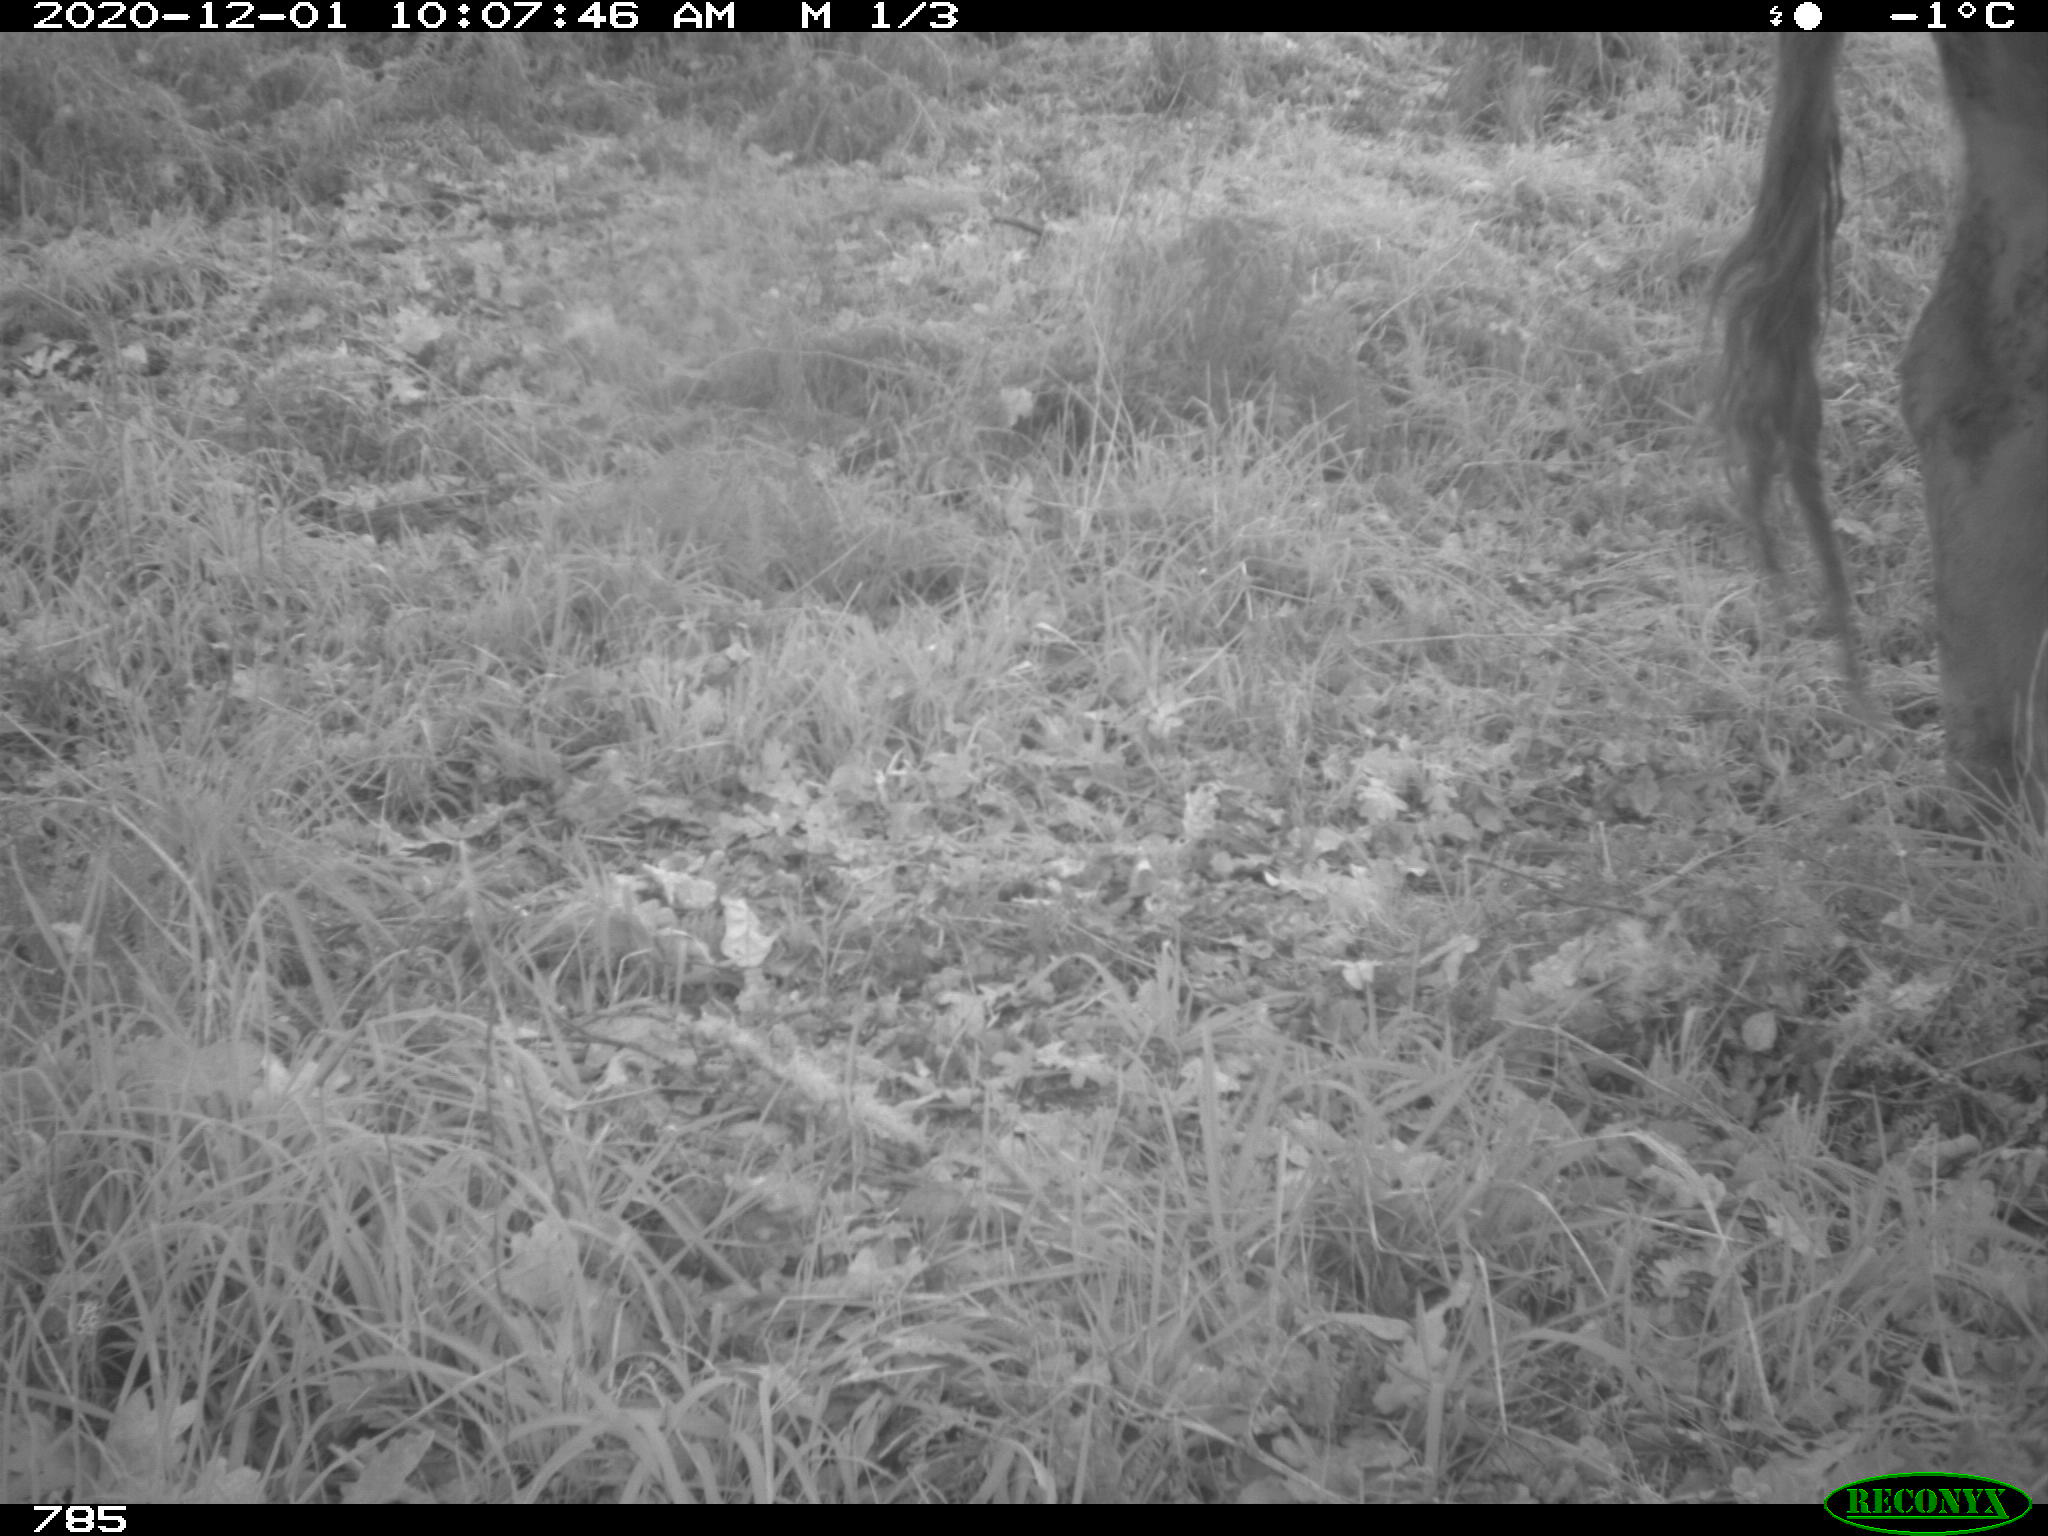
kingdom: Animalia
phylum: Chordata
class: Mammalia
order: Artiodactyla
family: Bovidae
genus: Bos
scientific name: Bos taurus
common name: Domesticated cattle
